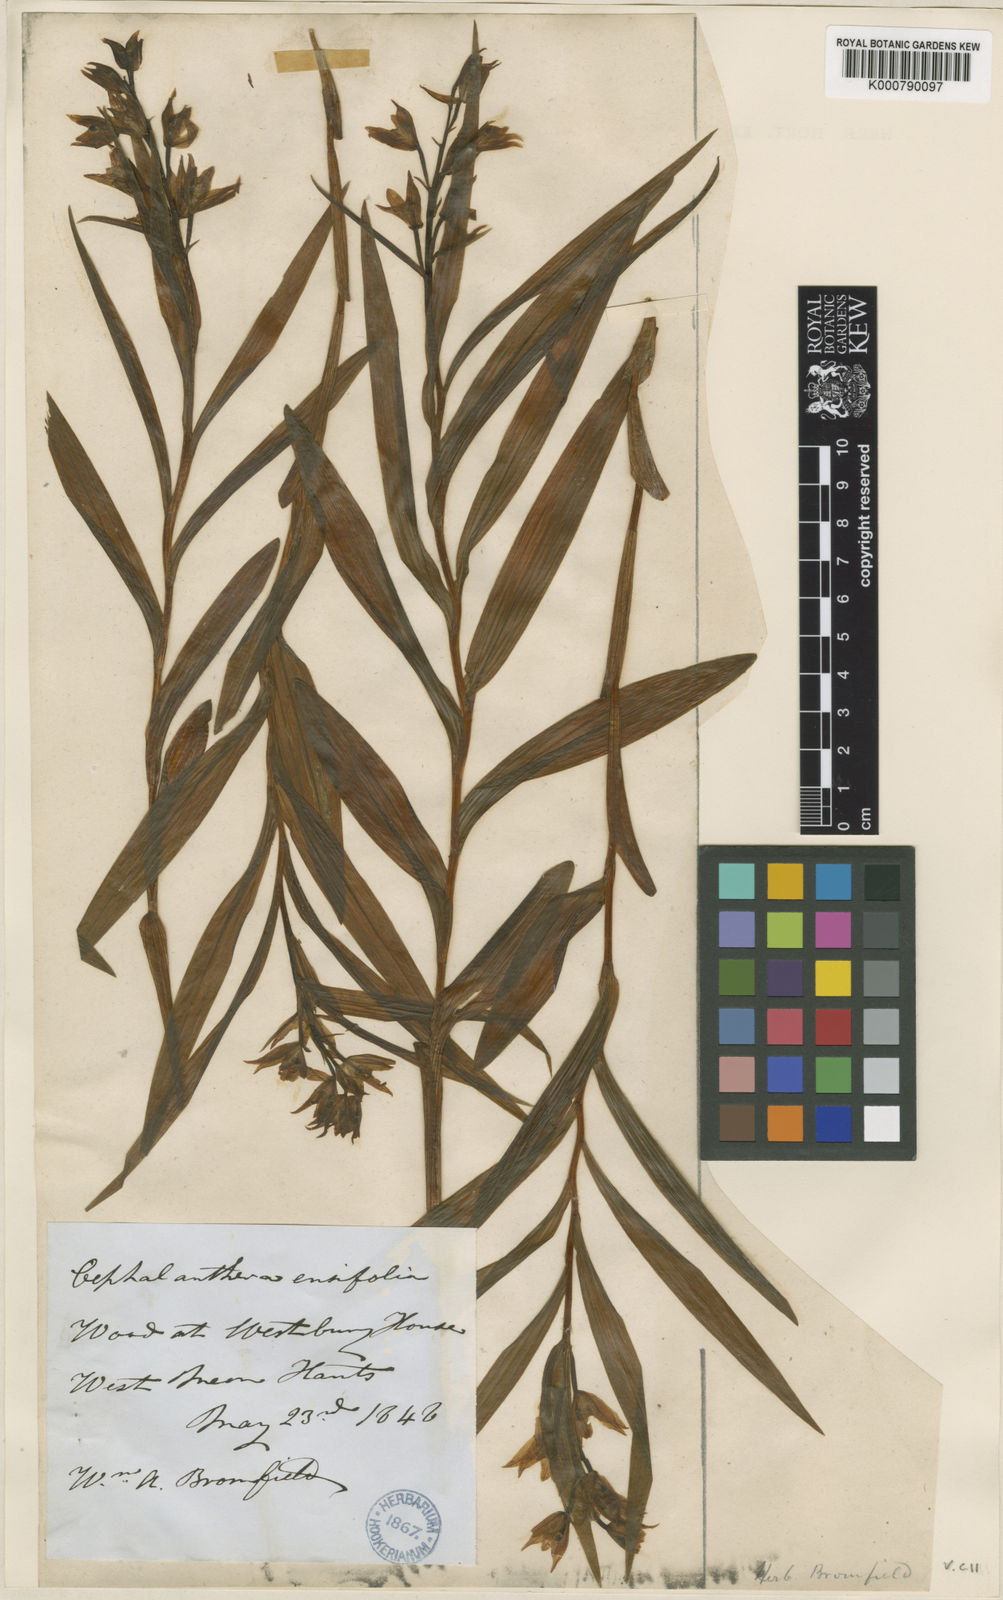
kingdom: Plantae
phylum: Tracheophyta
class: Liliopsida
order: Asparagales
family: Orchidaceae
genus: Cephalanthera
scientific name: Cephalanthera longifolia
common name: Narrow-leaved helleborine
